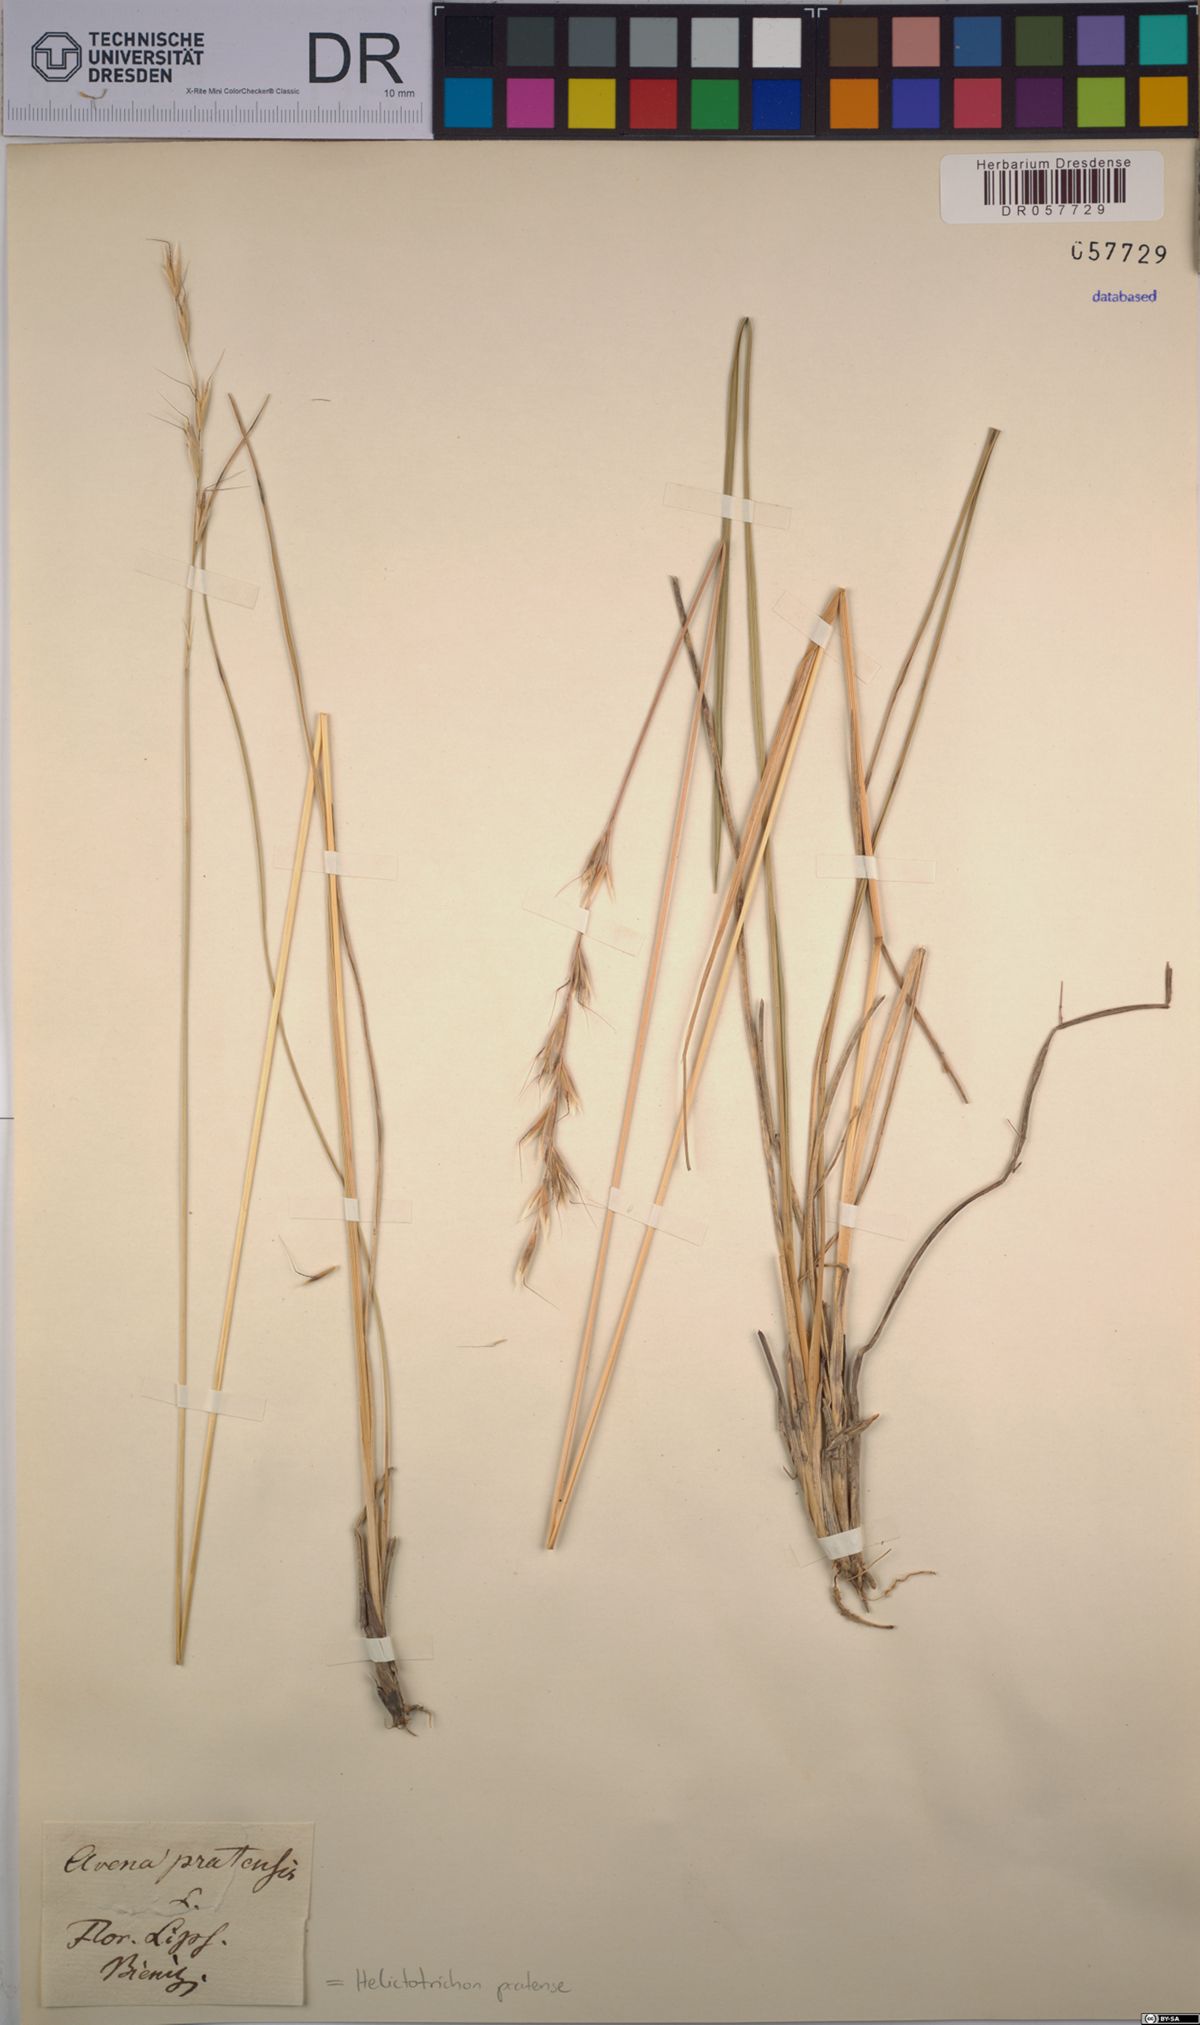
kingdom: Plantae
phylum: Tracheophyta
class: Liliopsida
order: Poales
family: Poaceae
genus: Helictochloa
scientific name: Helictochloa pratensis
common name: Meadow oat grass
